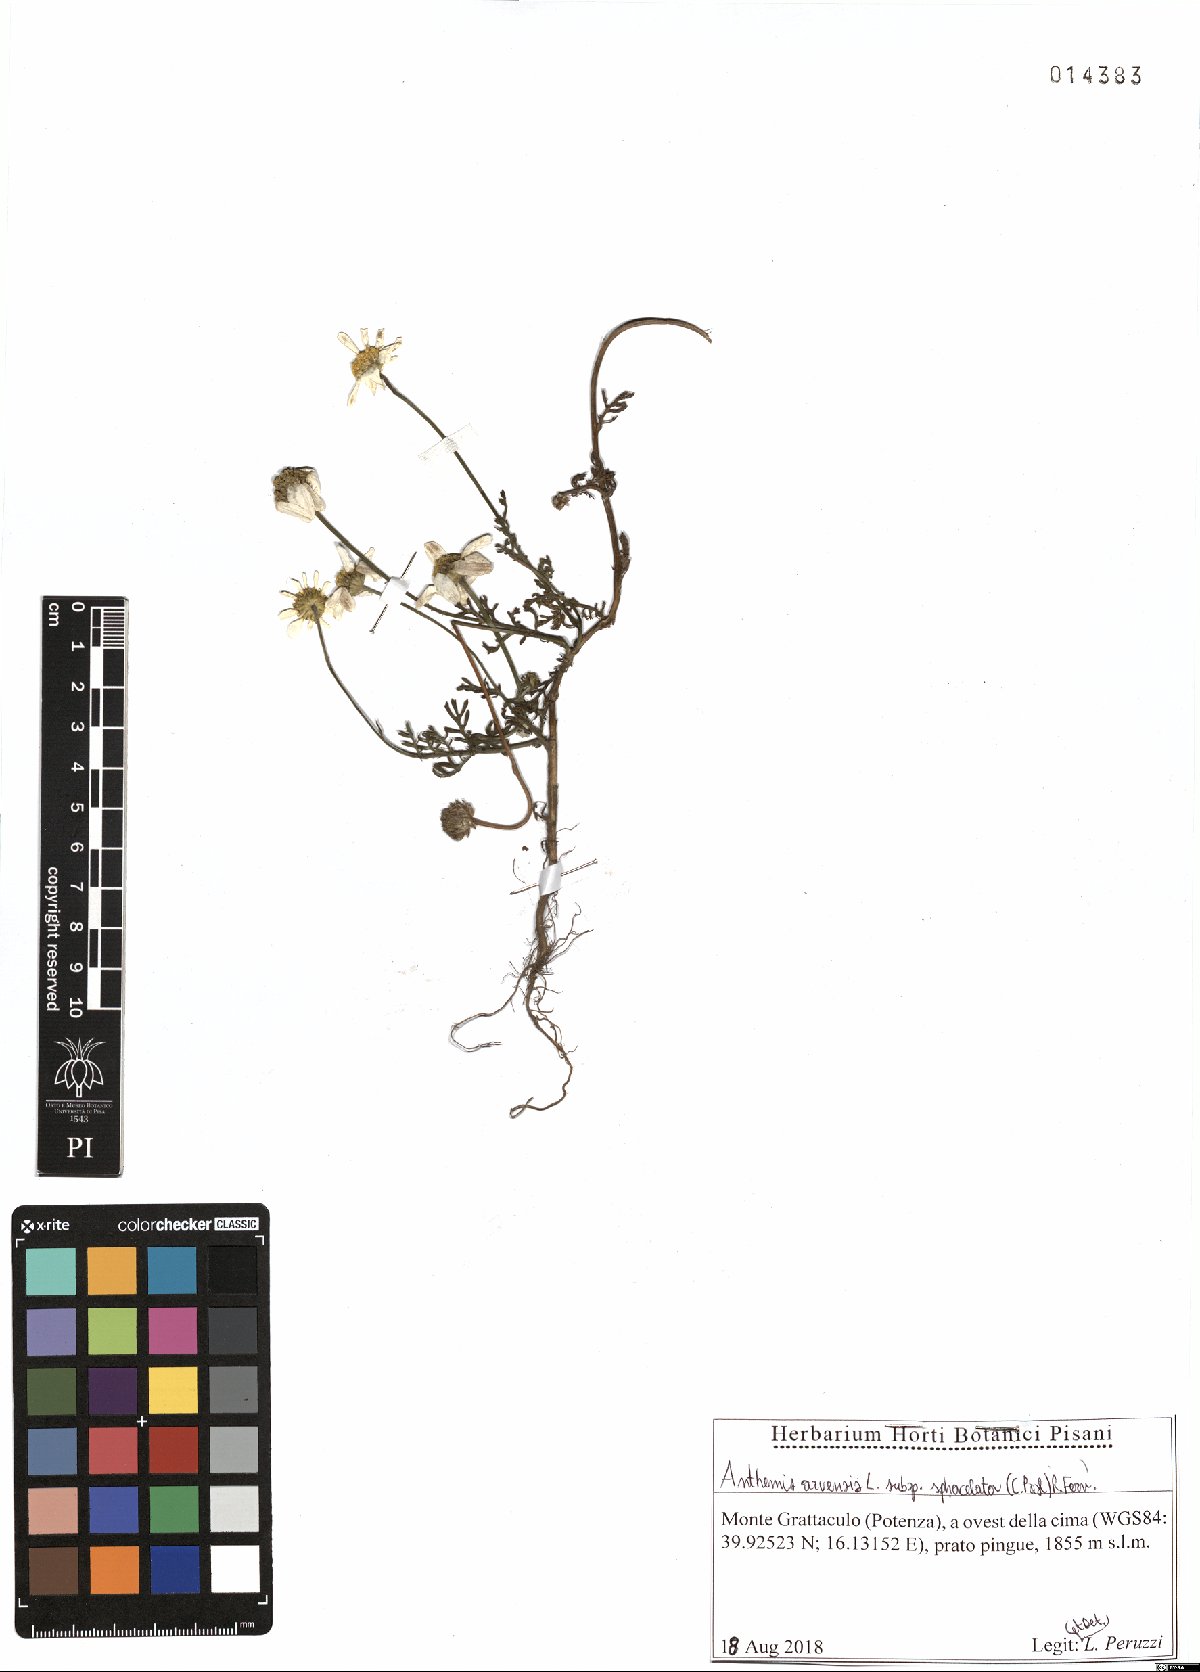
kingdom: Plantae
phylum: Tracheophyta
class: Magnoliopsida
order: Asterales
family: Asteraceae
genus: Anthemis
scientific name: Anthemis arvensis
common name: Corn chamomile
